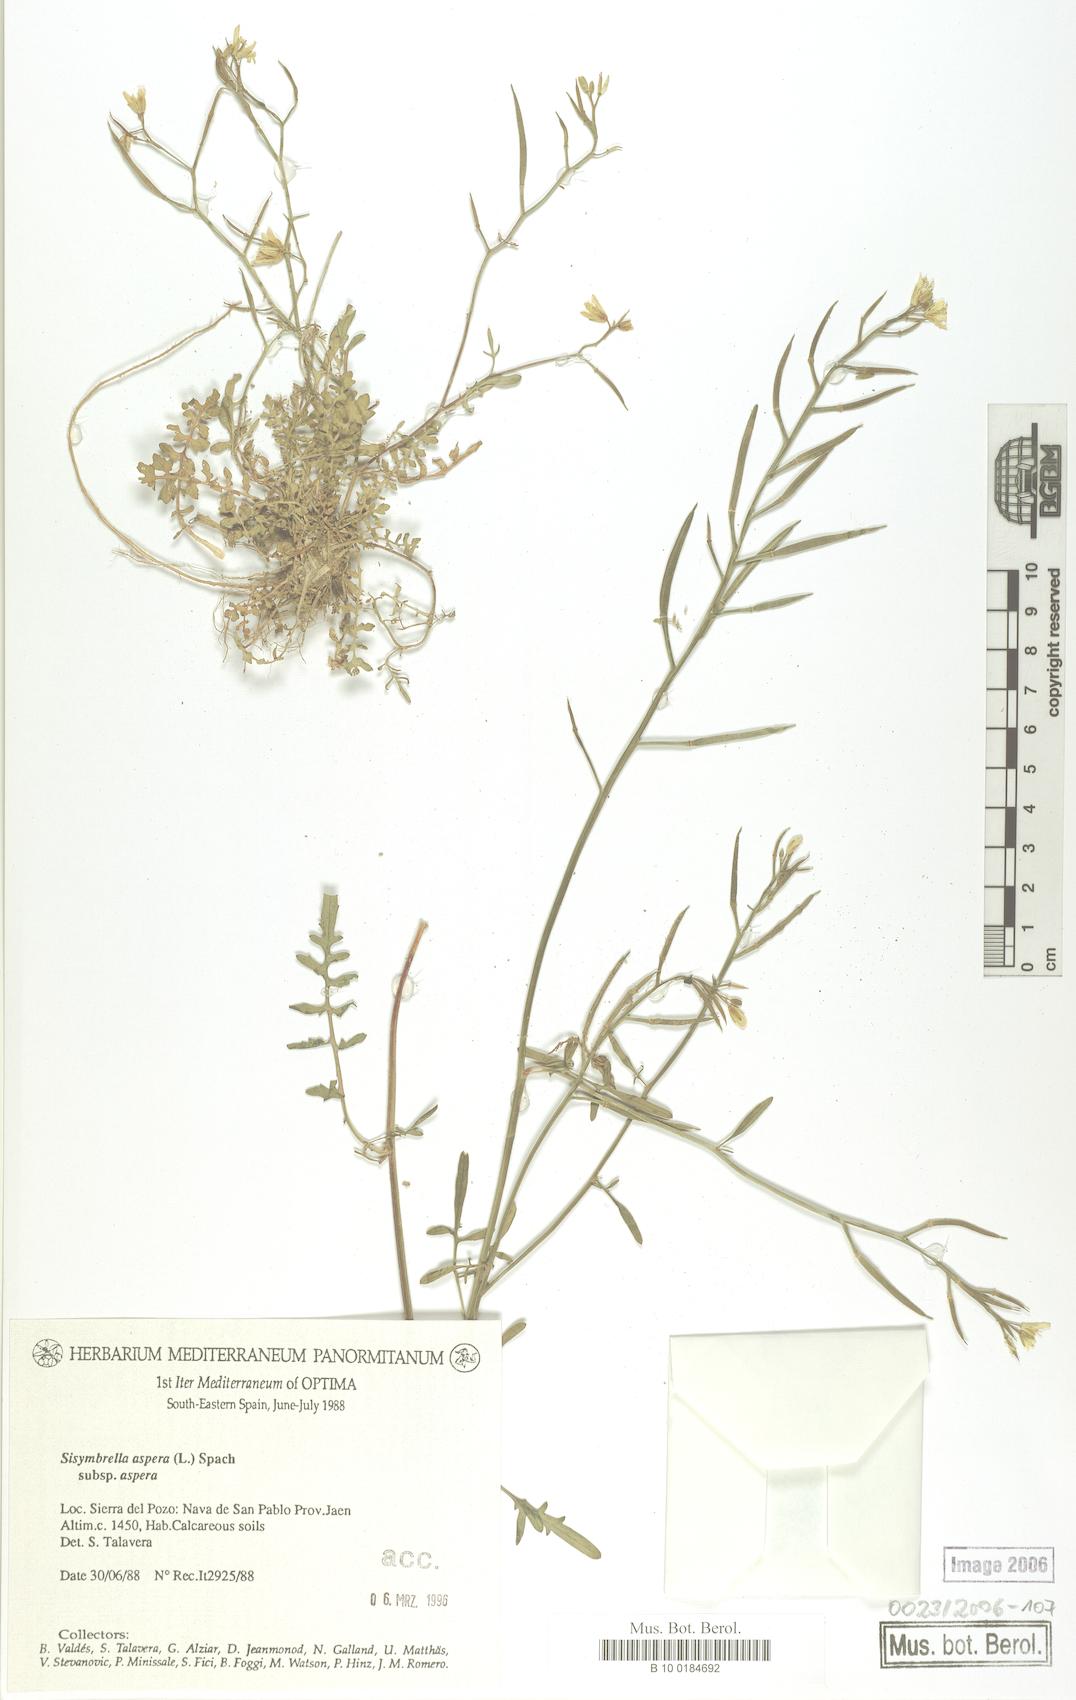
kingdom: Plantae
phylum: Tracheophyta
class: Magnoliopsida
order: Brassicales
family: Brassicaceae
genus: Sisymbrella
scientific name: Sisymbrella aspera
